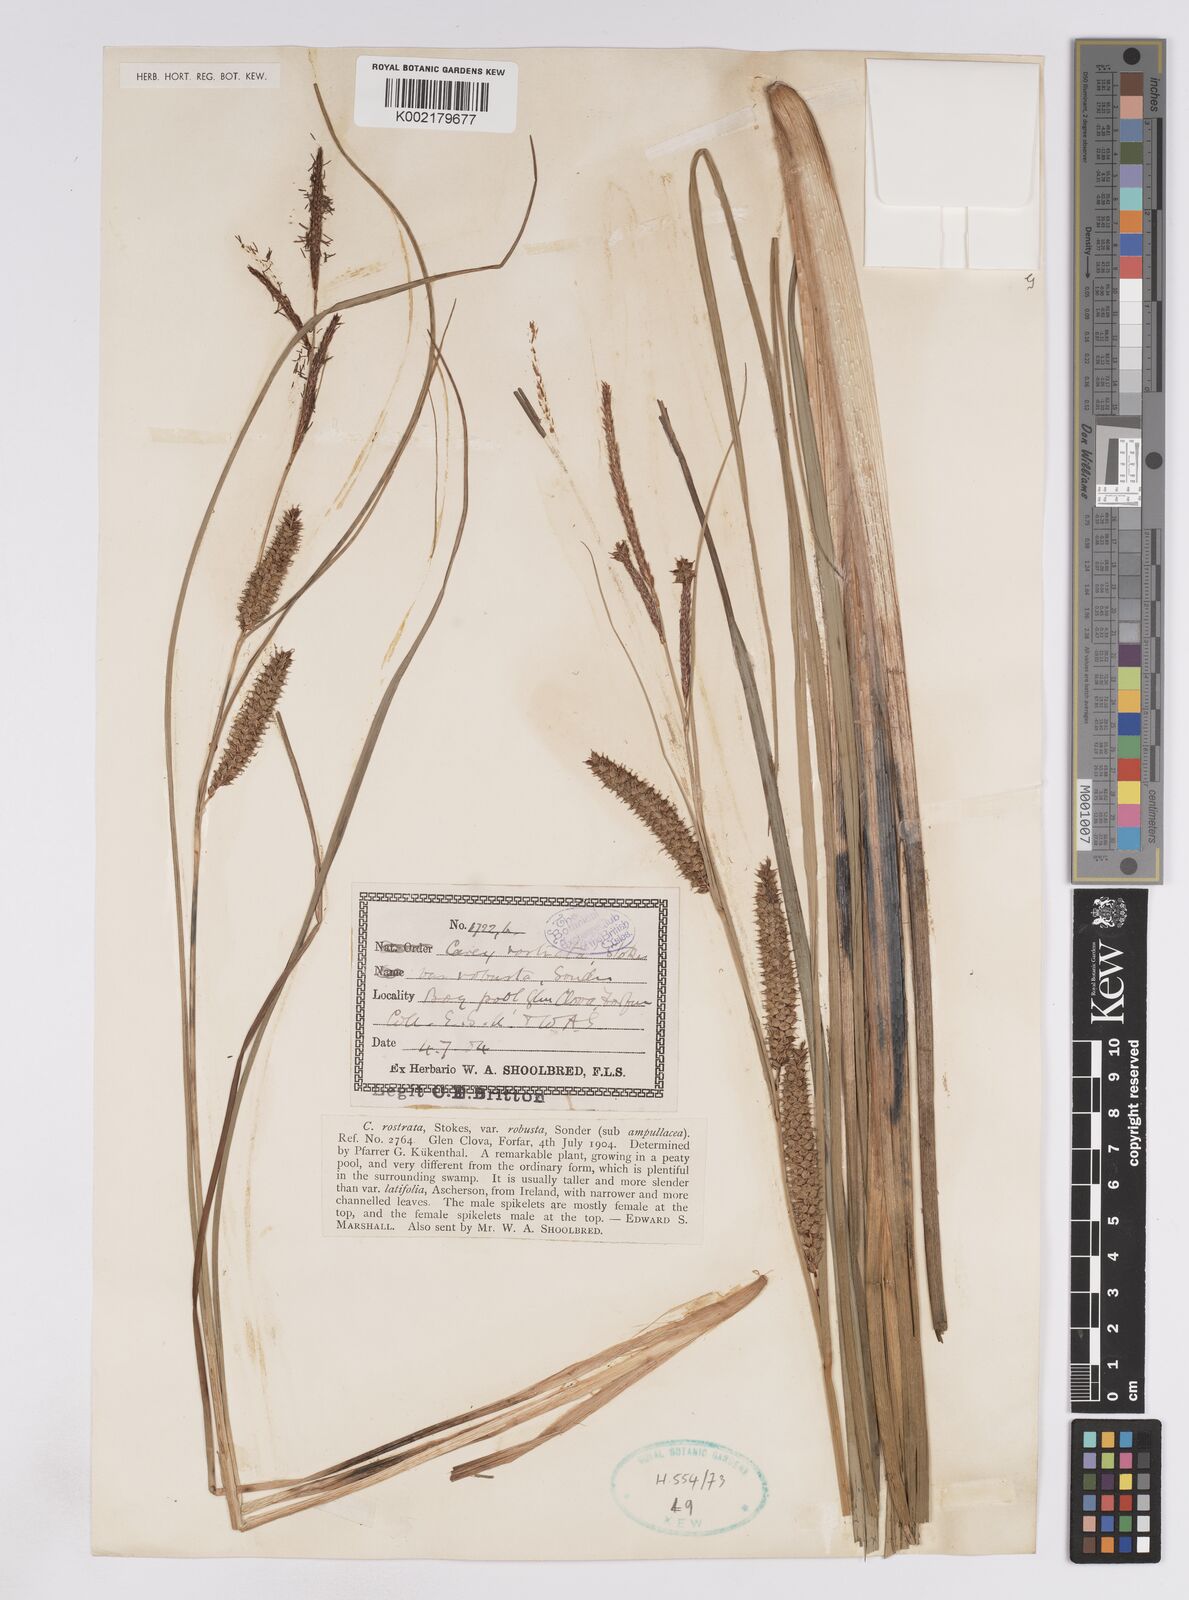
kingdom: Plantae
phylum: Tracheophyta
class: Liliopsida
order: Poales
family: Cyperaceae
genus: Carex
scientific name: Carex rostrata
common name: Bottle sedge
